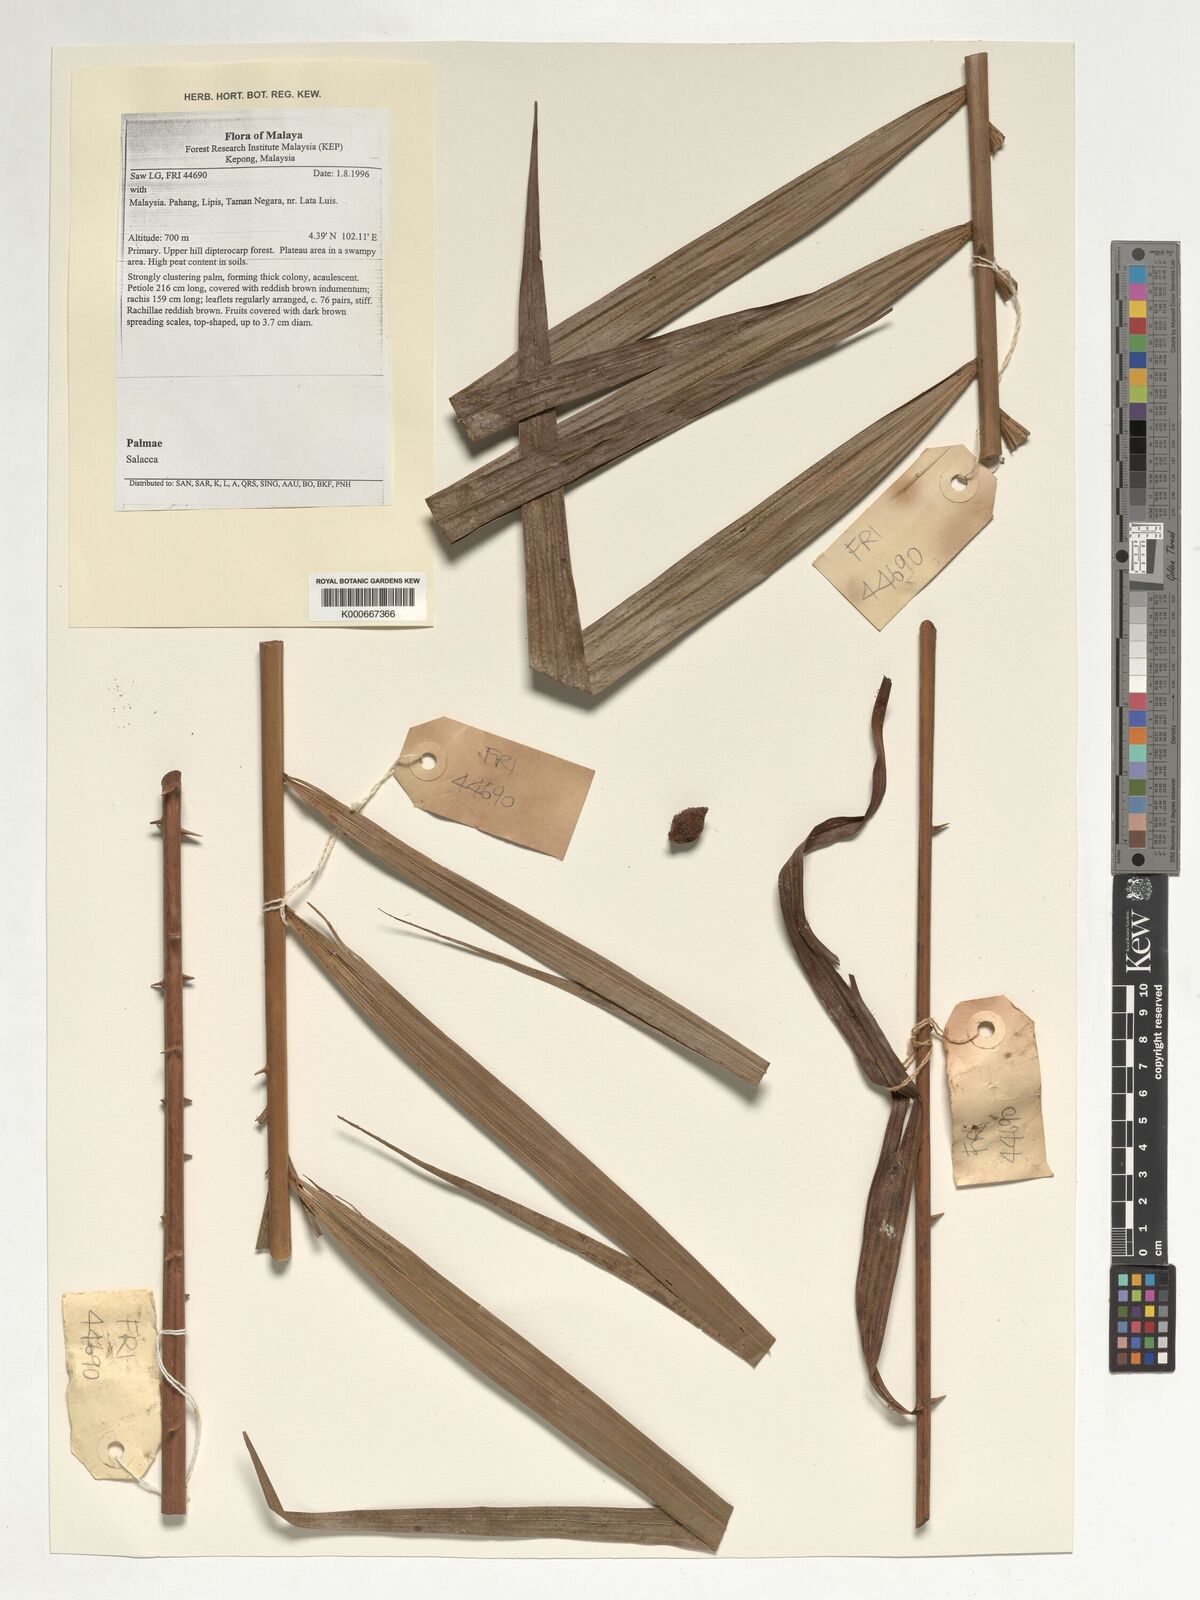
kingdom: Plantae
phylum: Tracheophyta
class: Liliopsida
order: Arecales
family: Arecaceae
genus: Salacca
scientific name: Salacca
